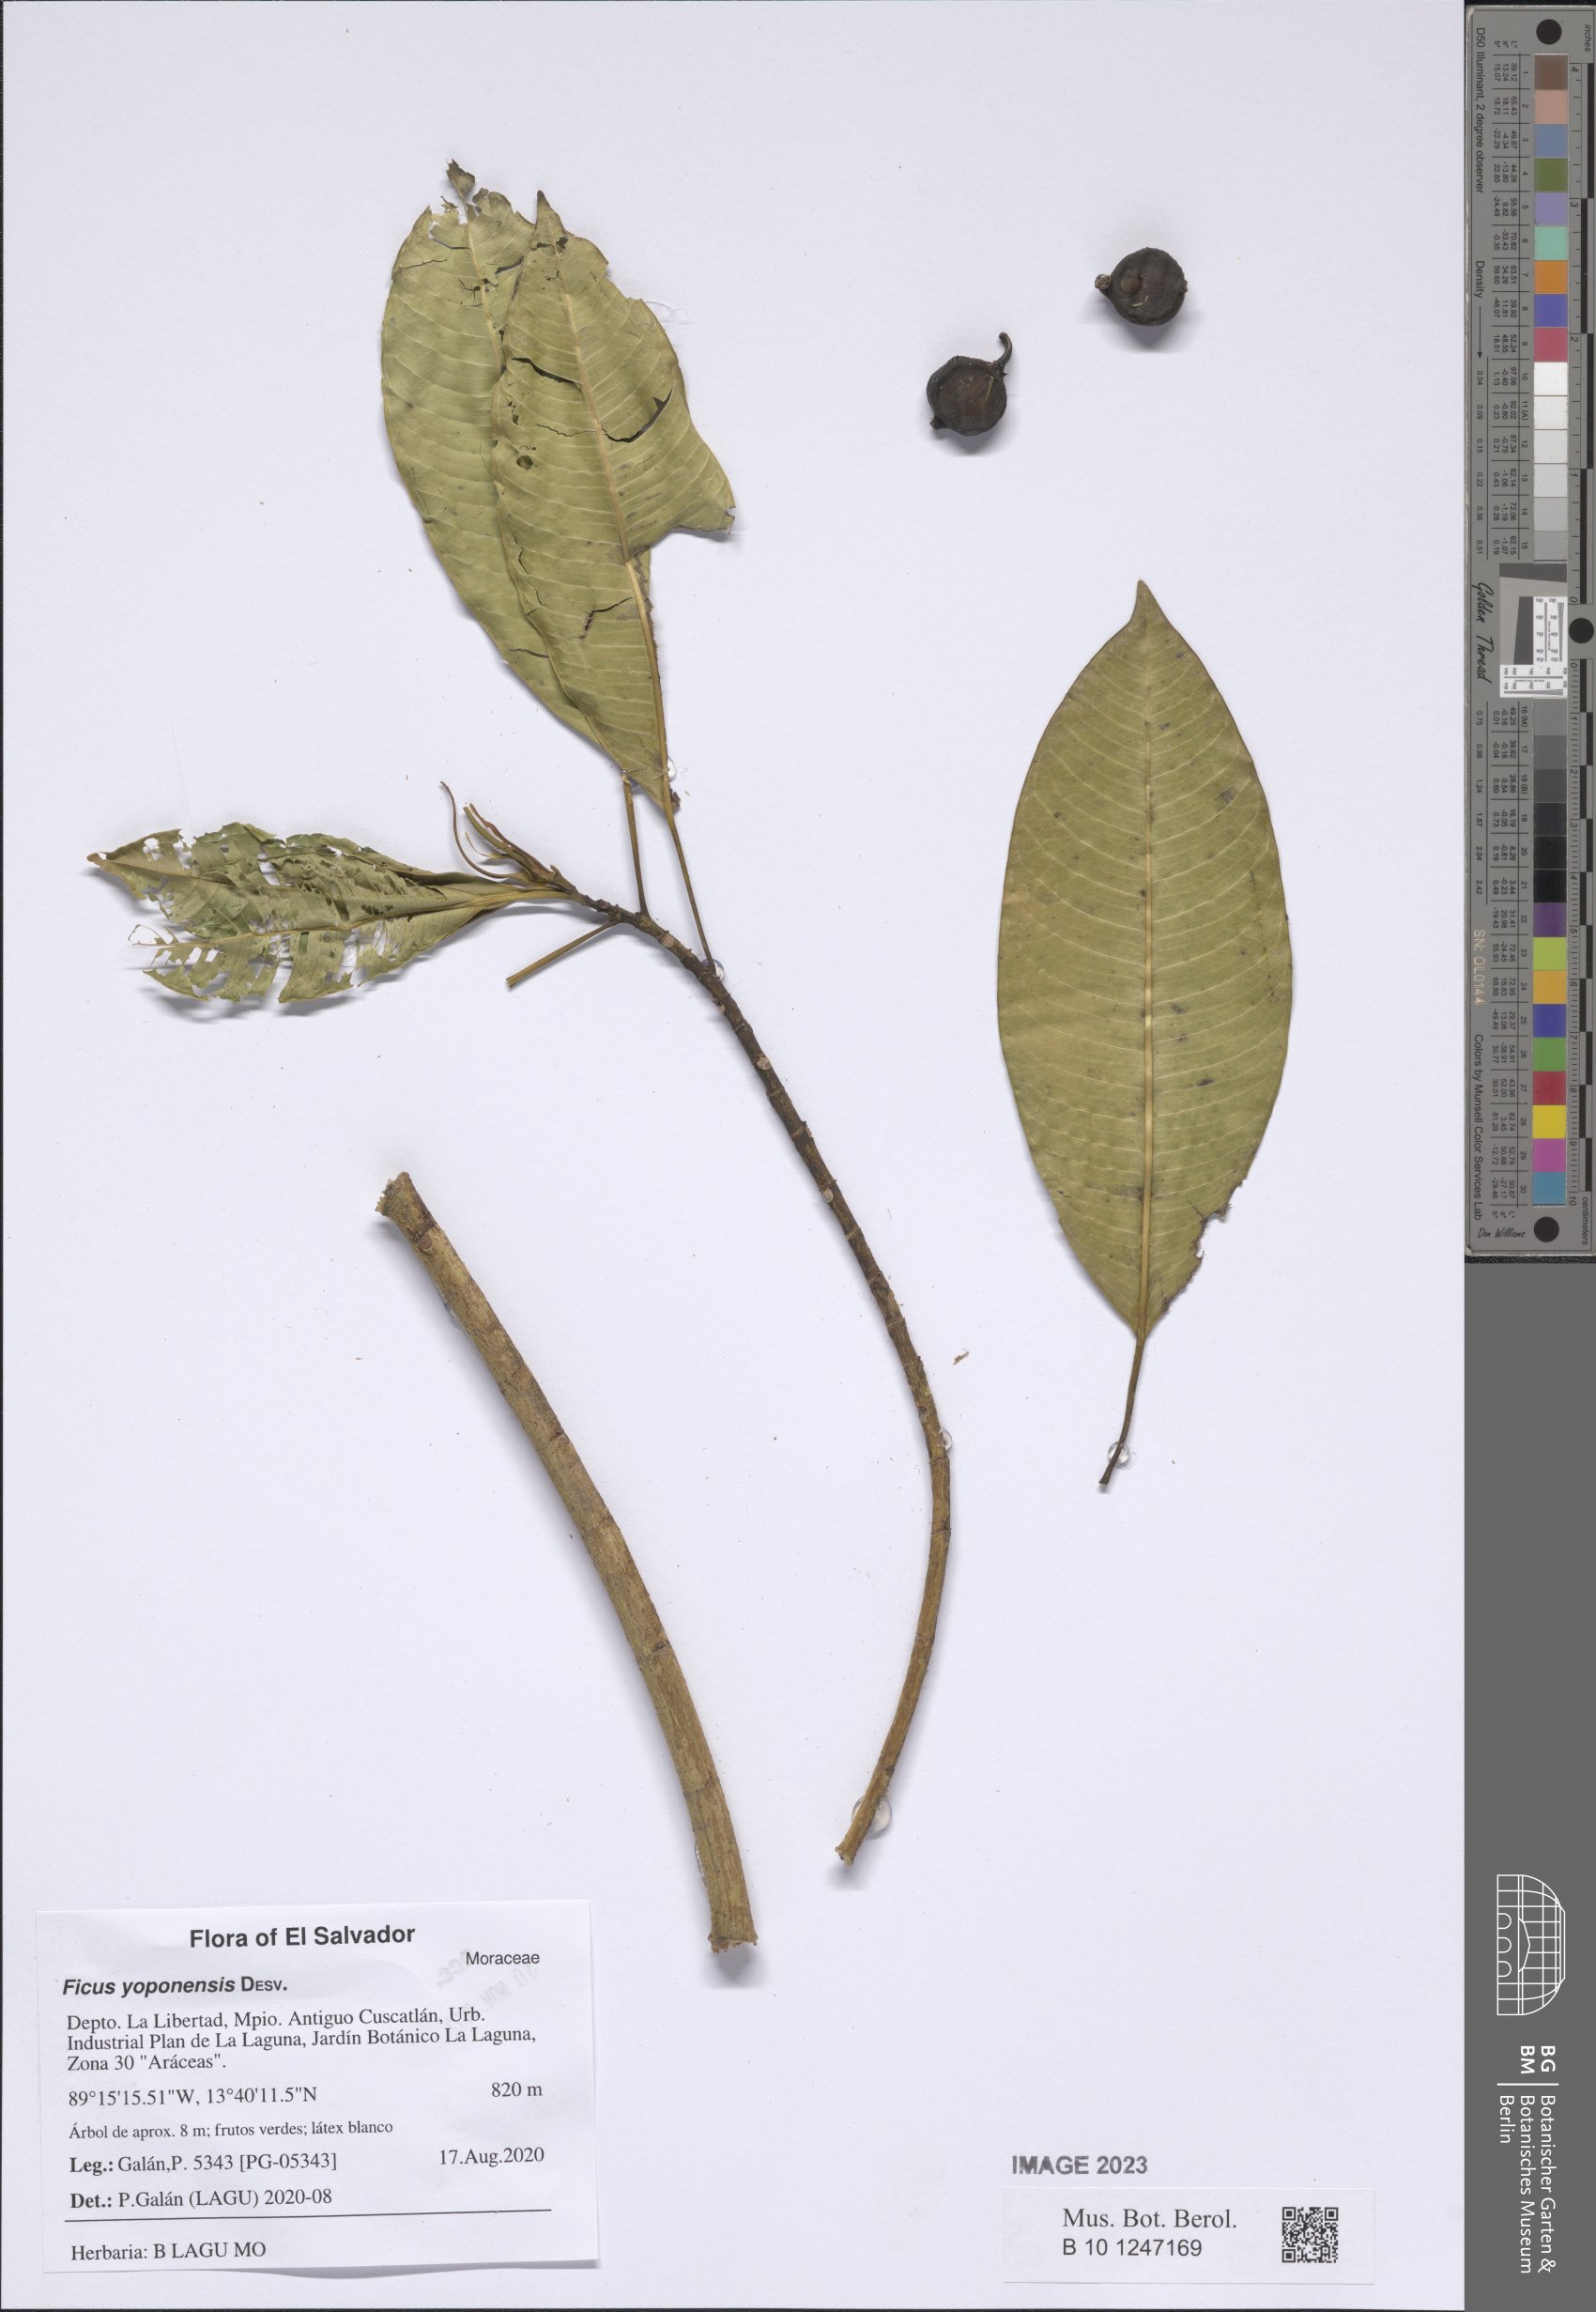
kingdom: Plantae
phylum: Tracheophyta
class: Magnoliopsida
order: Rosales
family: Moraceae
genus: Ficus
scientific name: Ficus yoponensis
